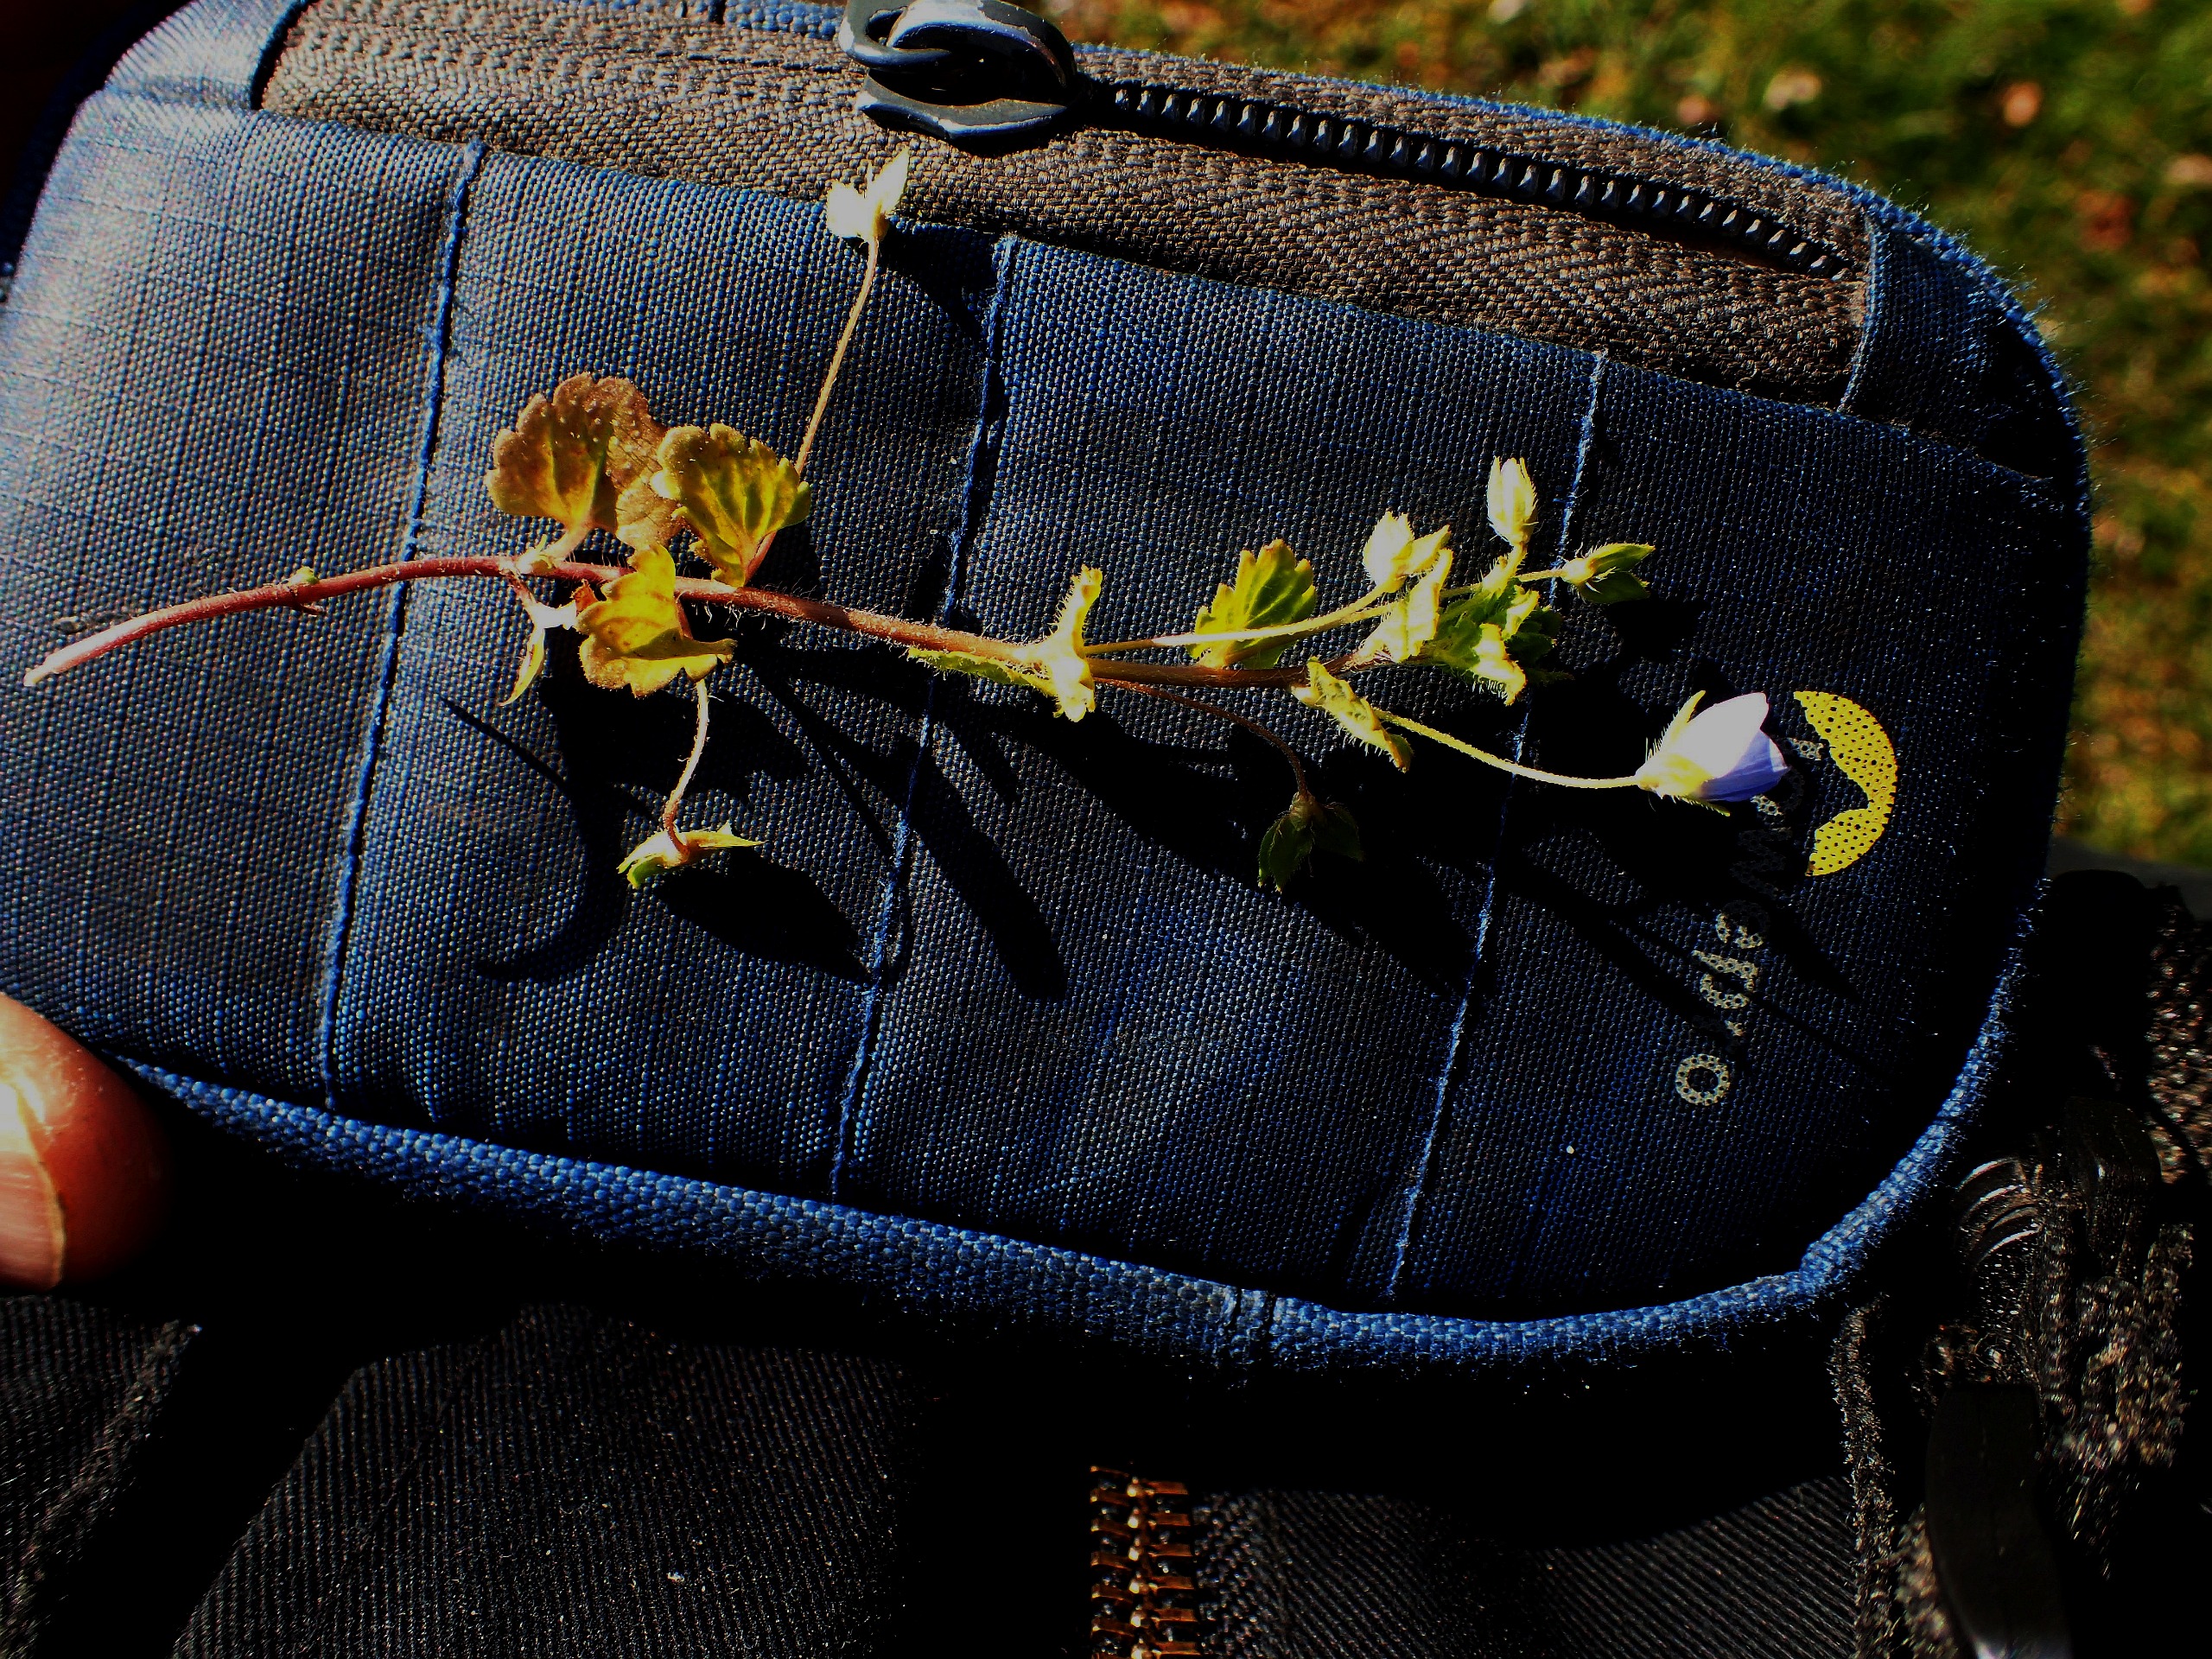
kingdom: Plantae
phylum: Tracheophyta
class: Magnoliopsida
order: Lamiales
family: Plantaginaceae
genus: Veronica
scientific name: Veronica filiformis
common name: Tråd-ærenpris
